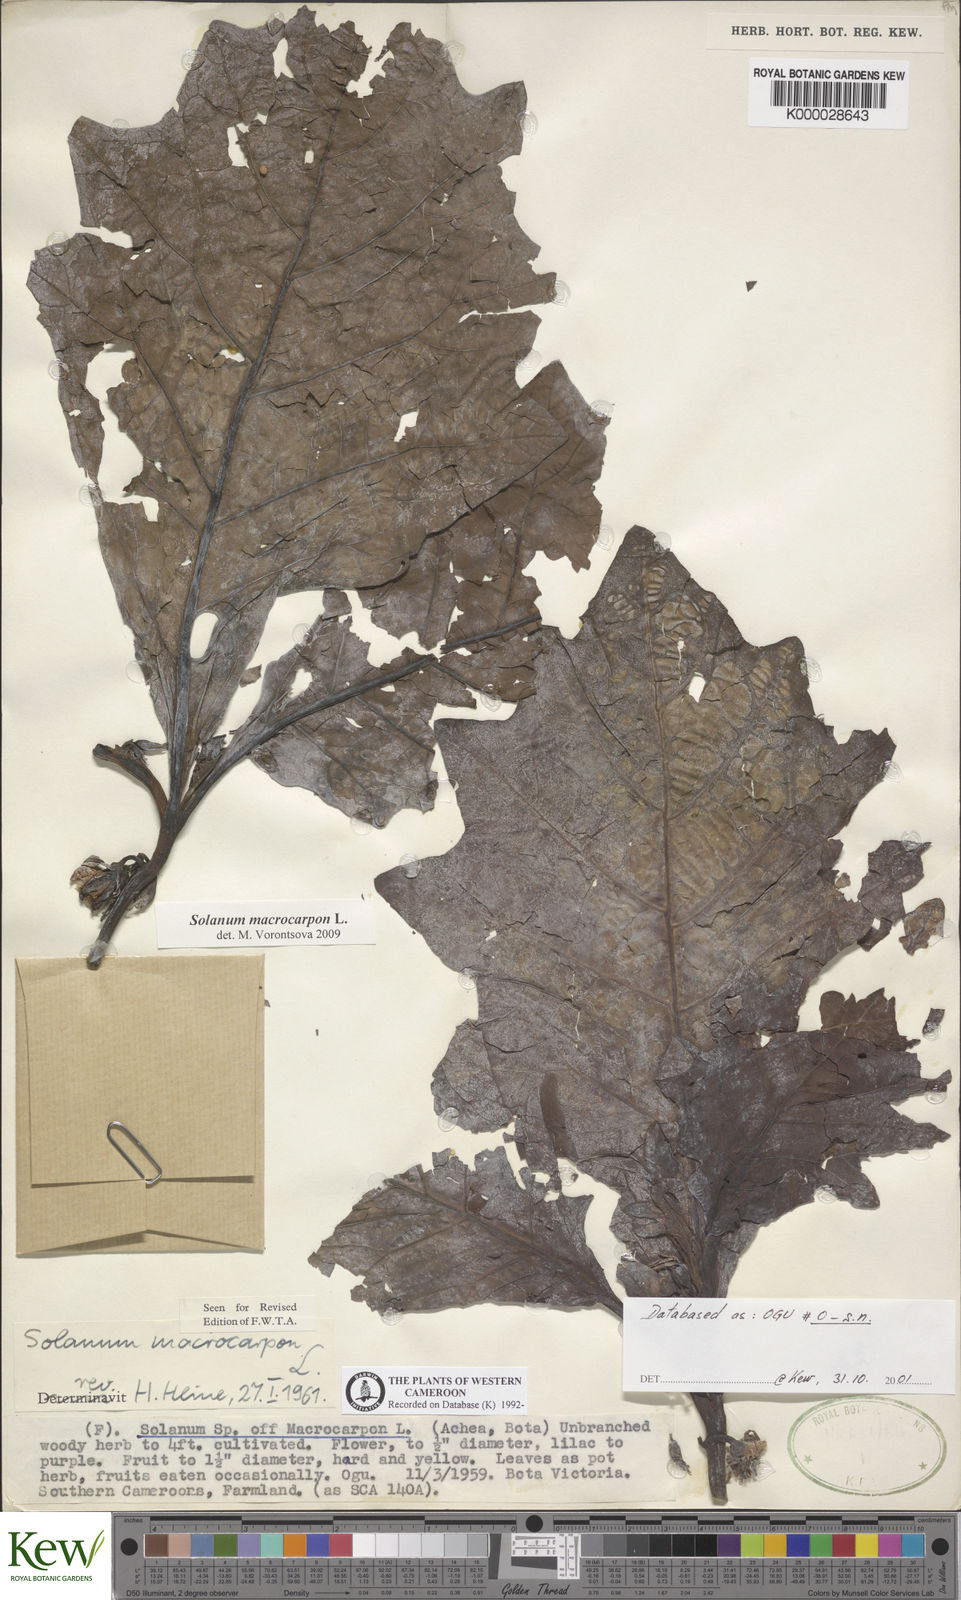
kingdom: Plantae
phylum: Tracheophyta
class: Magnoliopsida
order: Solanales
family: Solanaceae
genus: Solanum
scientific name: Solanum macrocarpon
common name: African eggplant
